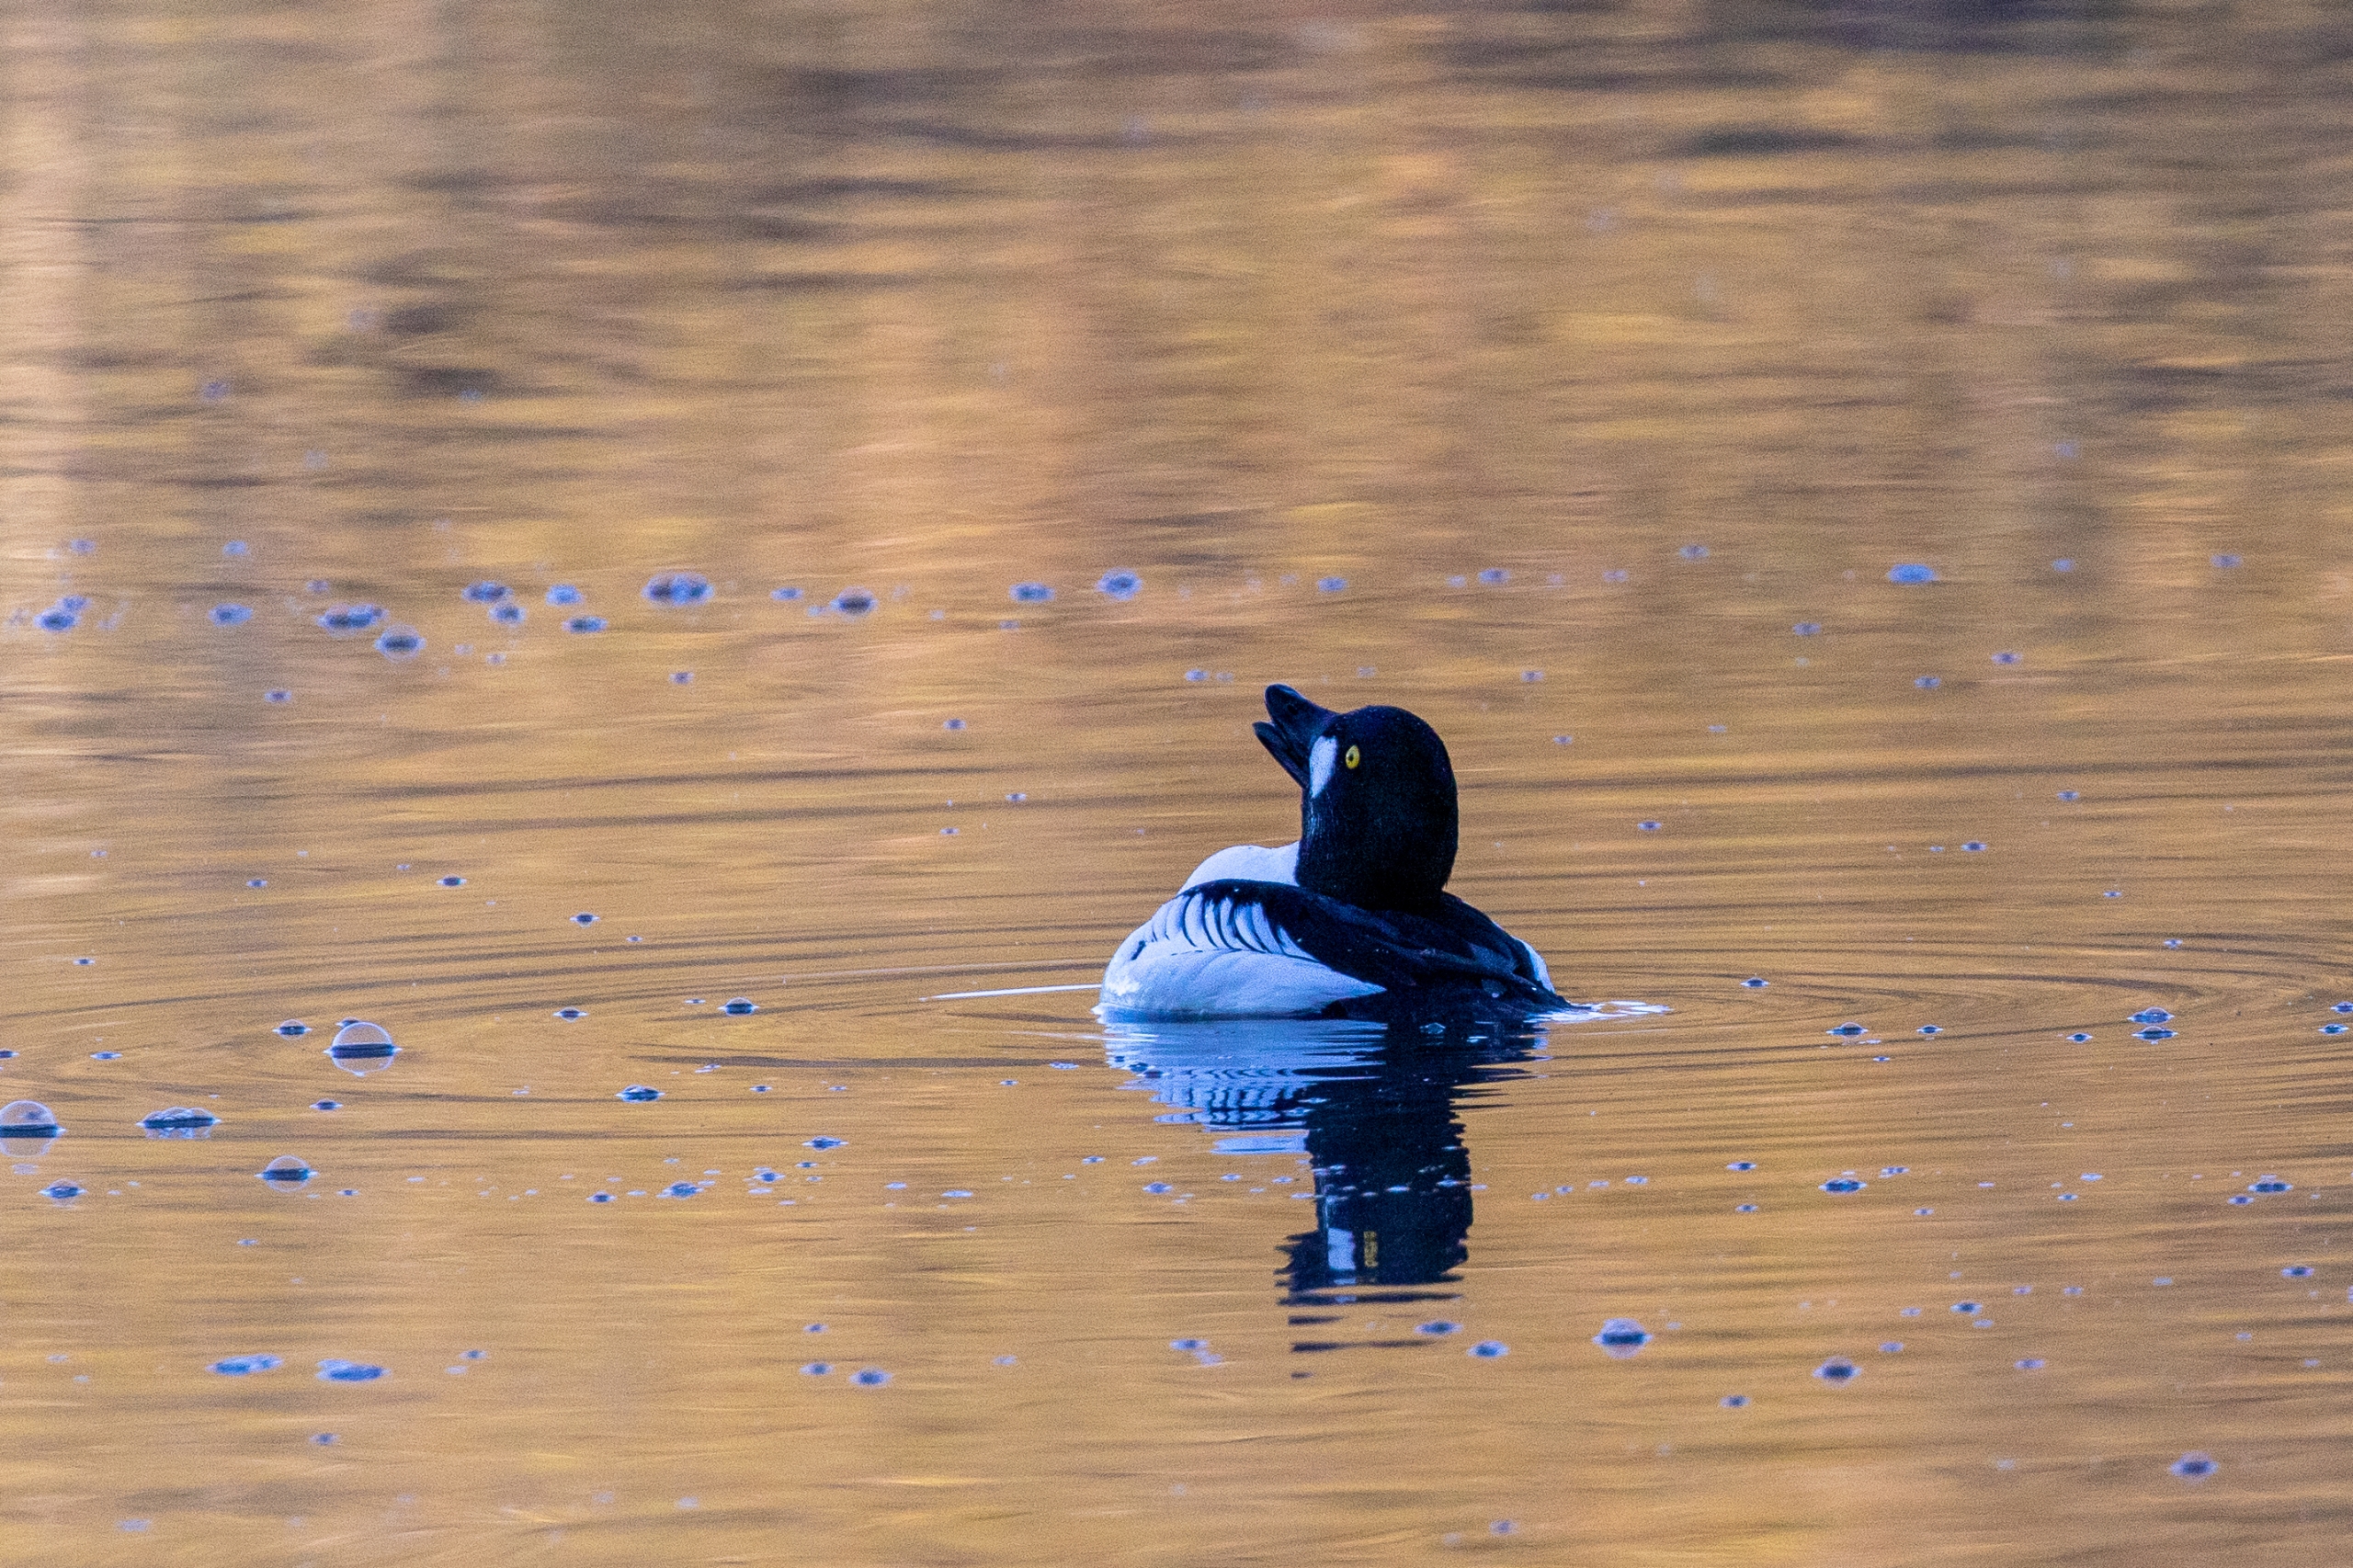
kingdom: Animalia
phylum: Chordata
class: Aves
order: Anseriformes
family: Anatidae
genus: Bucephala
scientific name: Bucephala clangula
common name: Hvinand
